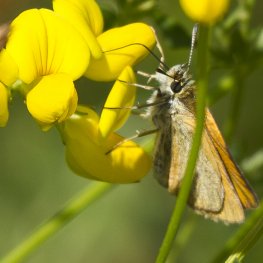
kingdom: Animalia
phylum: Arthropoda
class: Insecta
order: Lepidoptera
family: Hesperiidae
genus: Thymelicus
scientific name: Thymelicus lineola
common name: European Skipper
